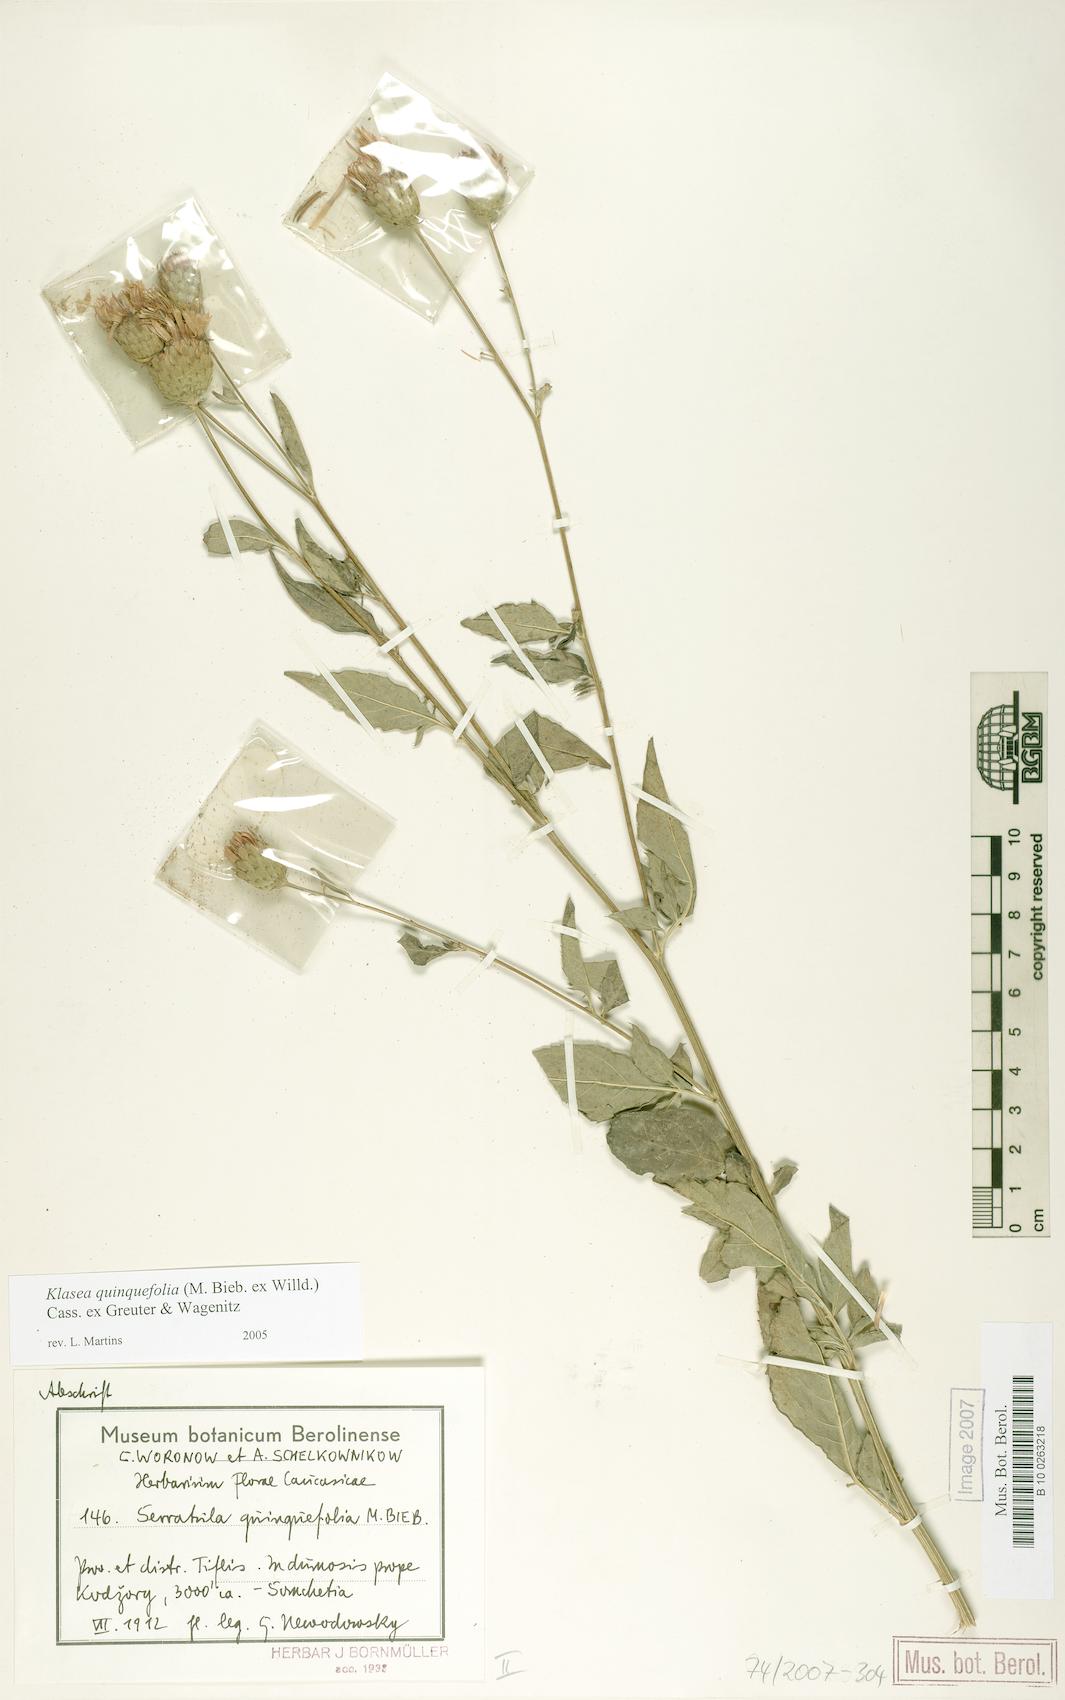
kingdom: Plantae
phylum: Tracheophyta
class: Magnoliopsida
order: Asterales
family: Asteraceae
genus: Klasea
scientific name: Klasea quinquefolia
